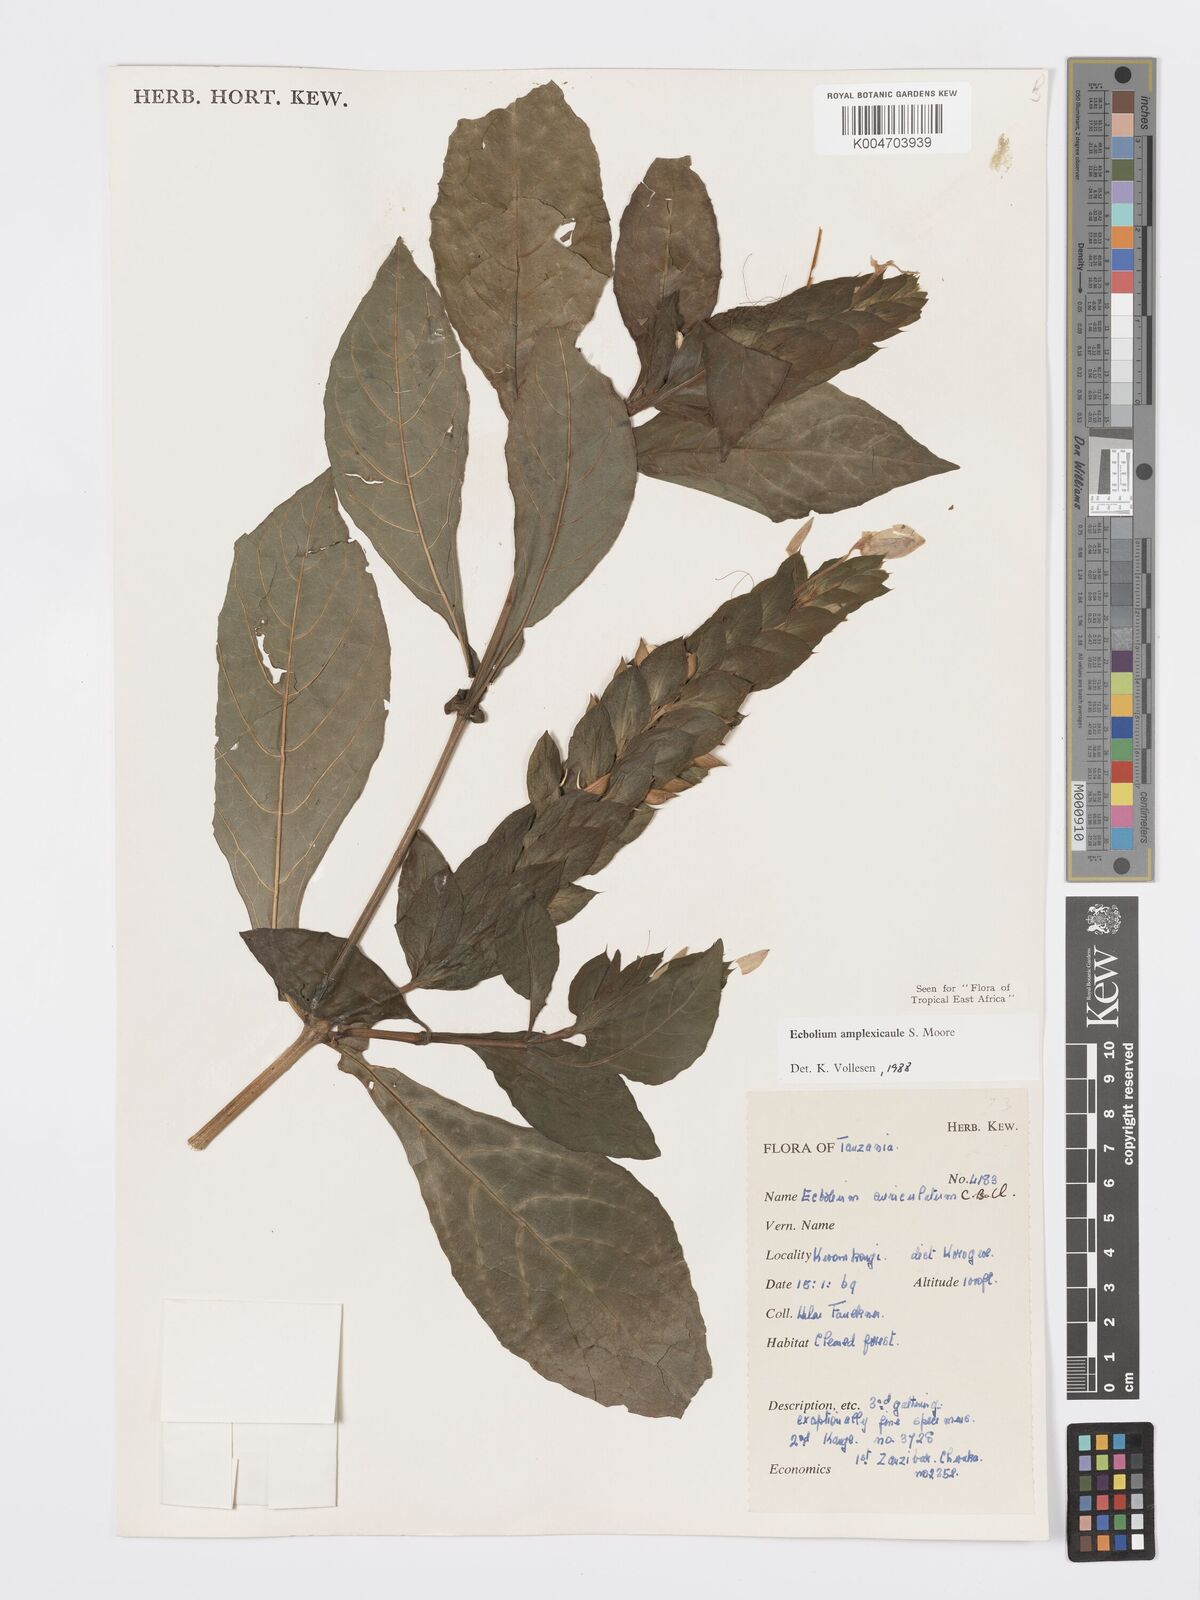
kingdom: Plantae
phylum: Tracheophyta
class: Magnoliopsida
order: Lamiales
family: Acanthaceae
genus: Ecbolium
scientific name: Ecbolium amplexicaule
